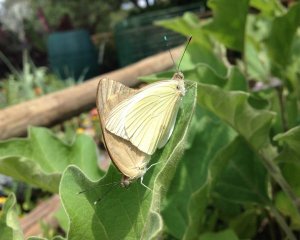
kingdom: Animalia
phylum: Arthropoda
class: Insecta
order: Lepidoptera
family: Pieridae
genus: Ascia
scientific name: Ascia monuste
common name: Great Southern White
